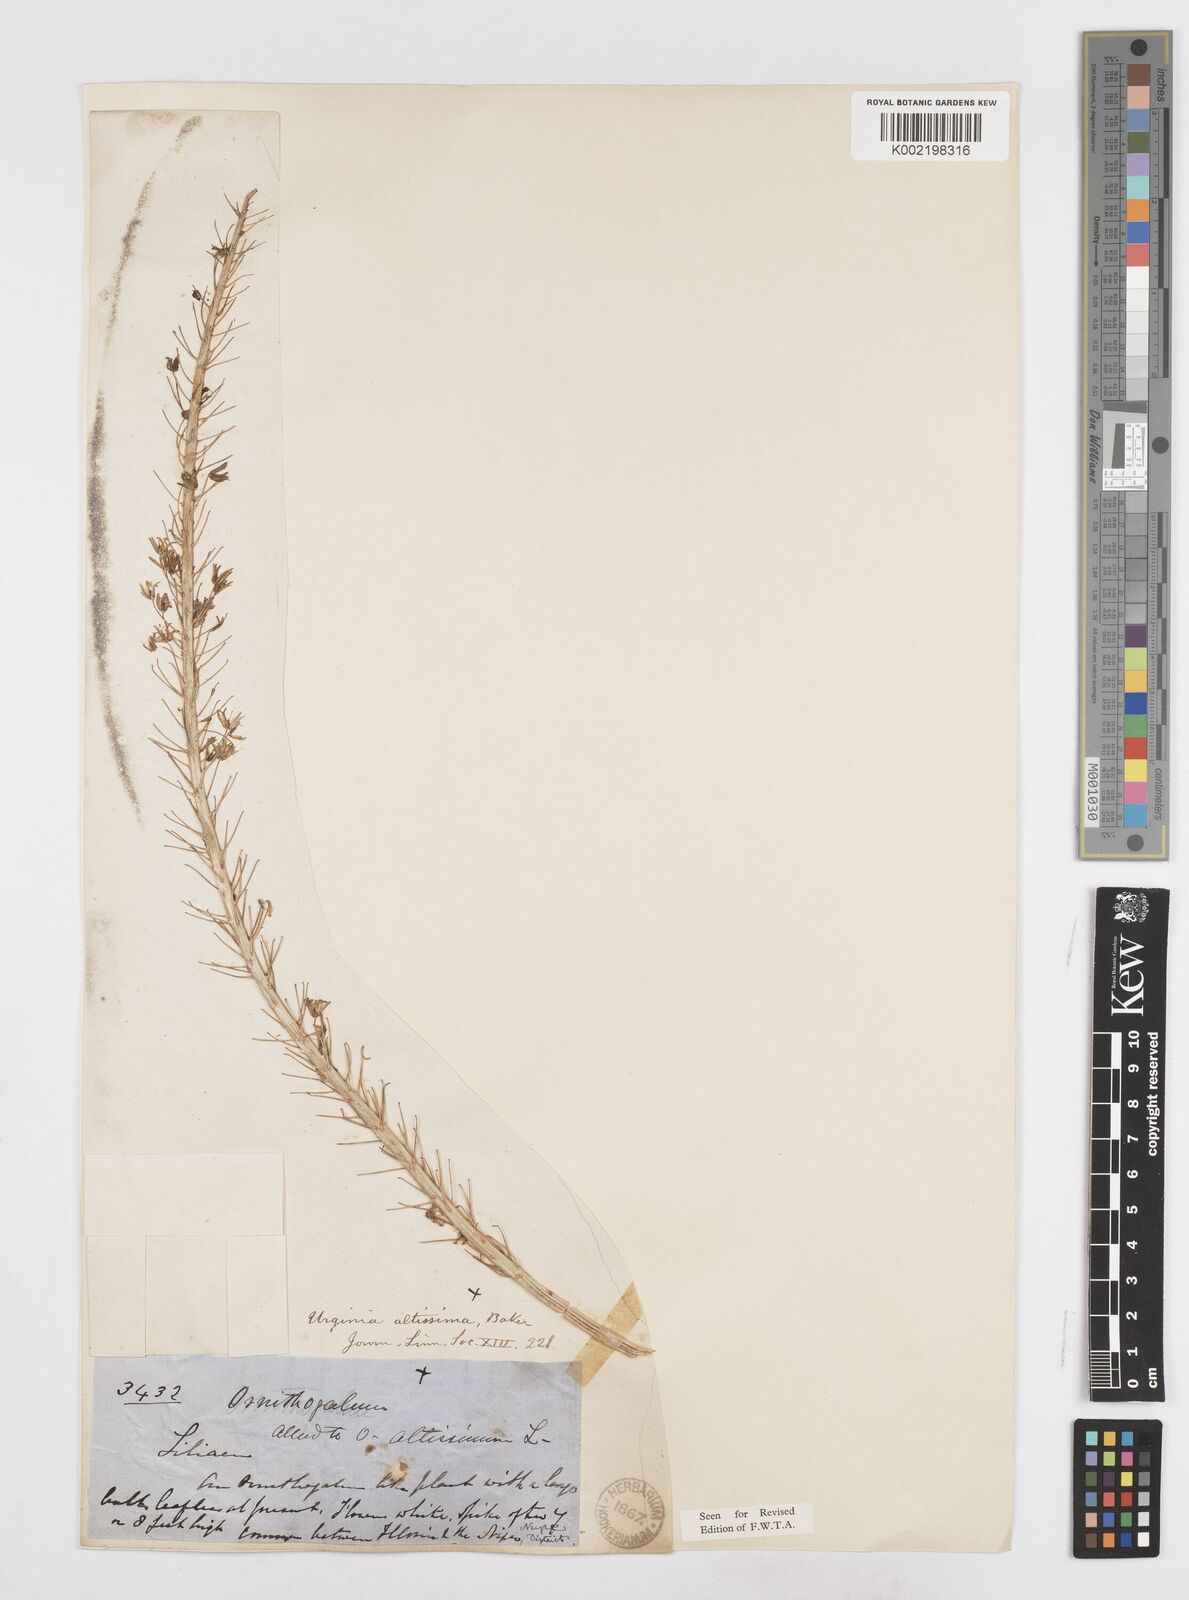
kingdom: Plantae
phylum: Tracheophyta
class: Liliopsida
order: Asparagales
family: Asparagaceae
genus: Drimia
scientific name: Drimia altissima
